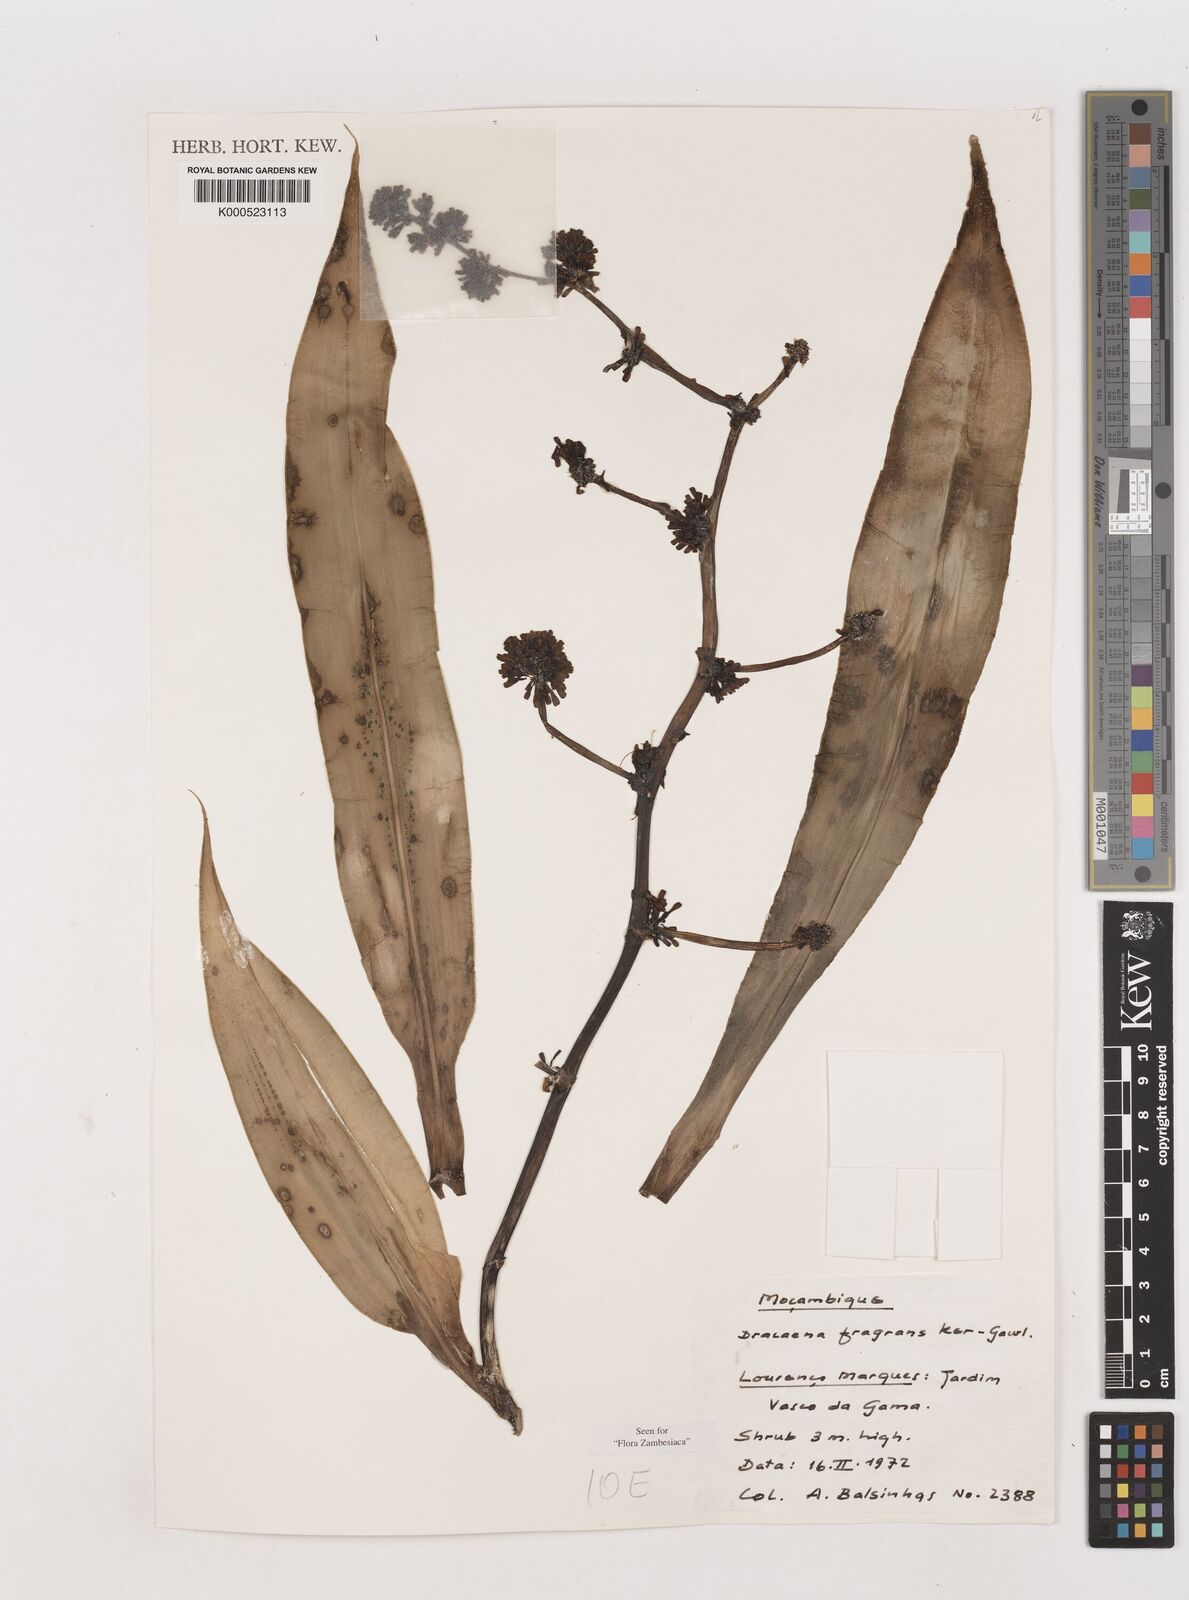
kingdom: Plantae
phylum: Tracheophyta
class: Liliopsida
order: Asparagales
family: Asparagaceae
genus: Dracaena
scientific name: Dracaena fragrans
